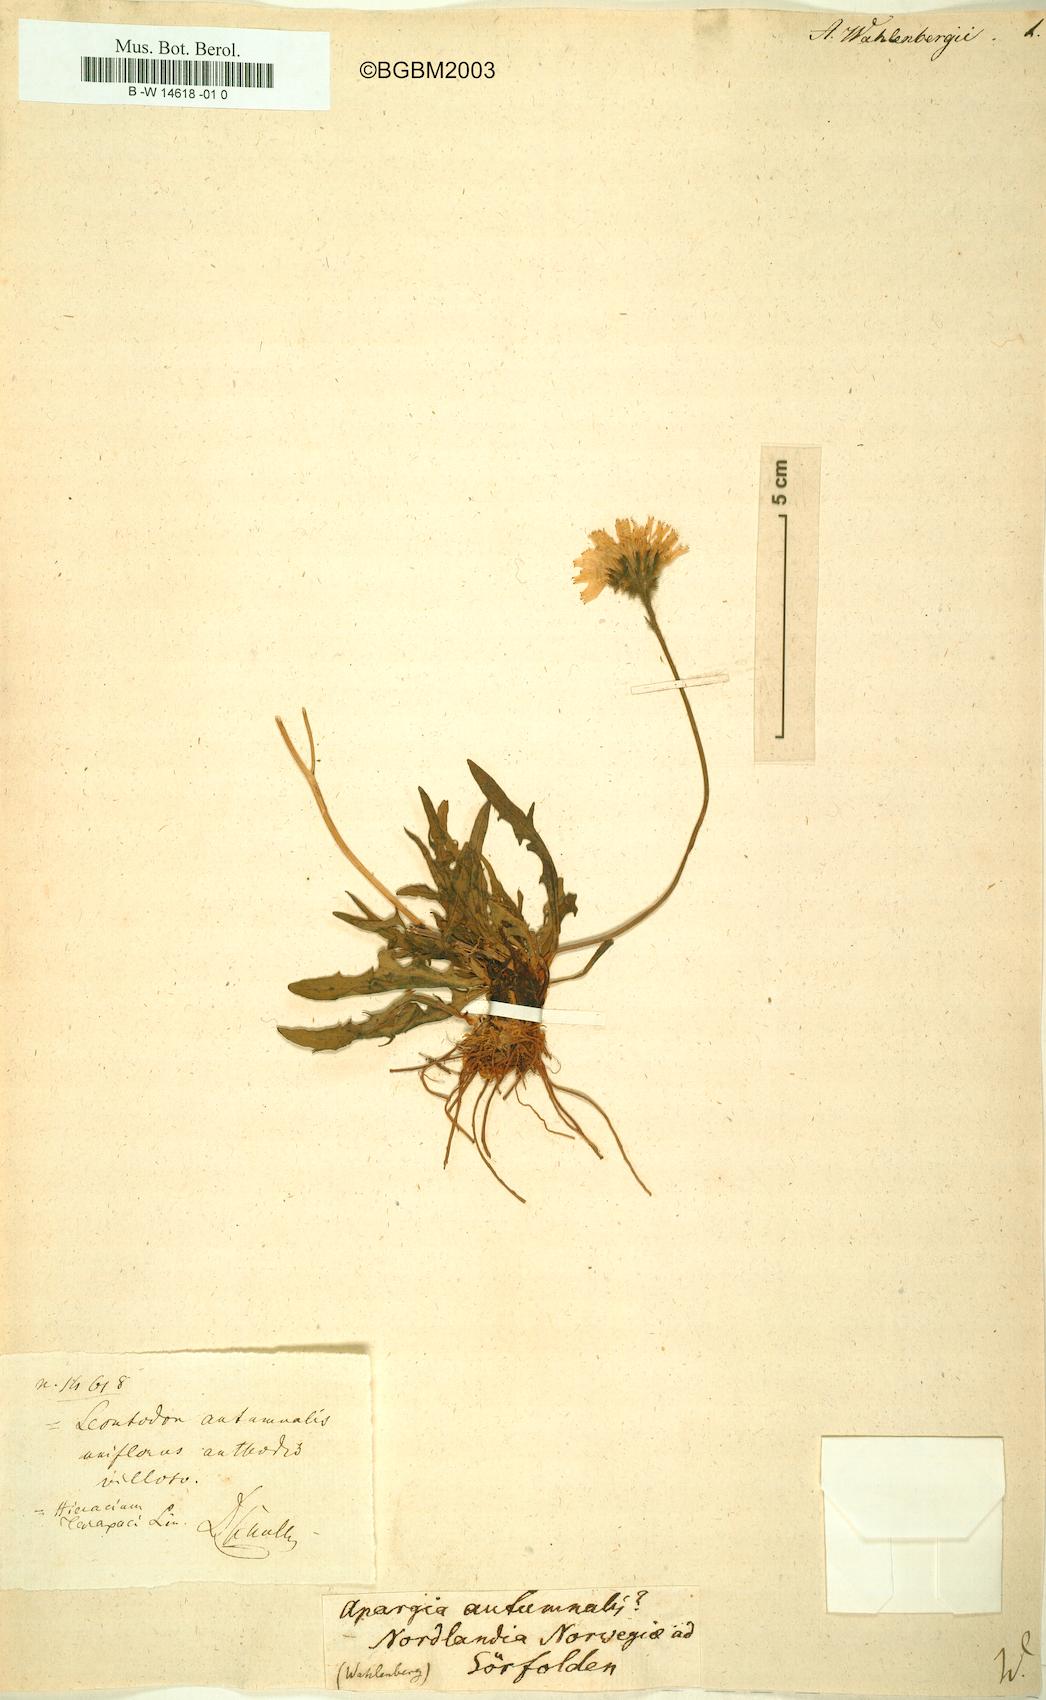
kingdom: Plantae
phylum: Tracheophyta
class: Magnoliopsida
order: Asterales
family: Asteraceae
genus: Leontodon
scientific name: Leontodon
